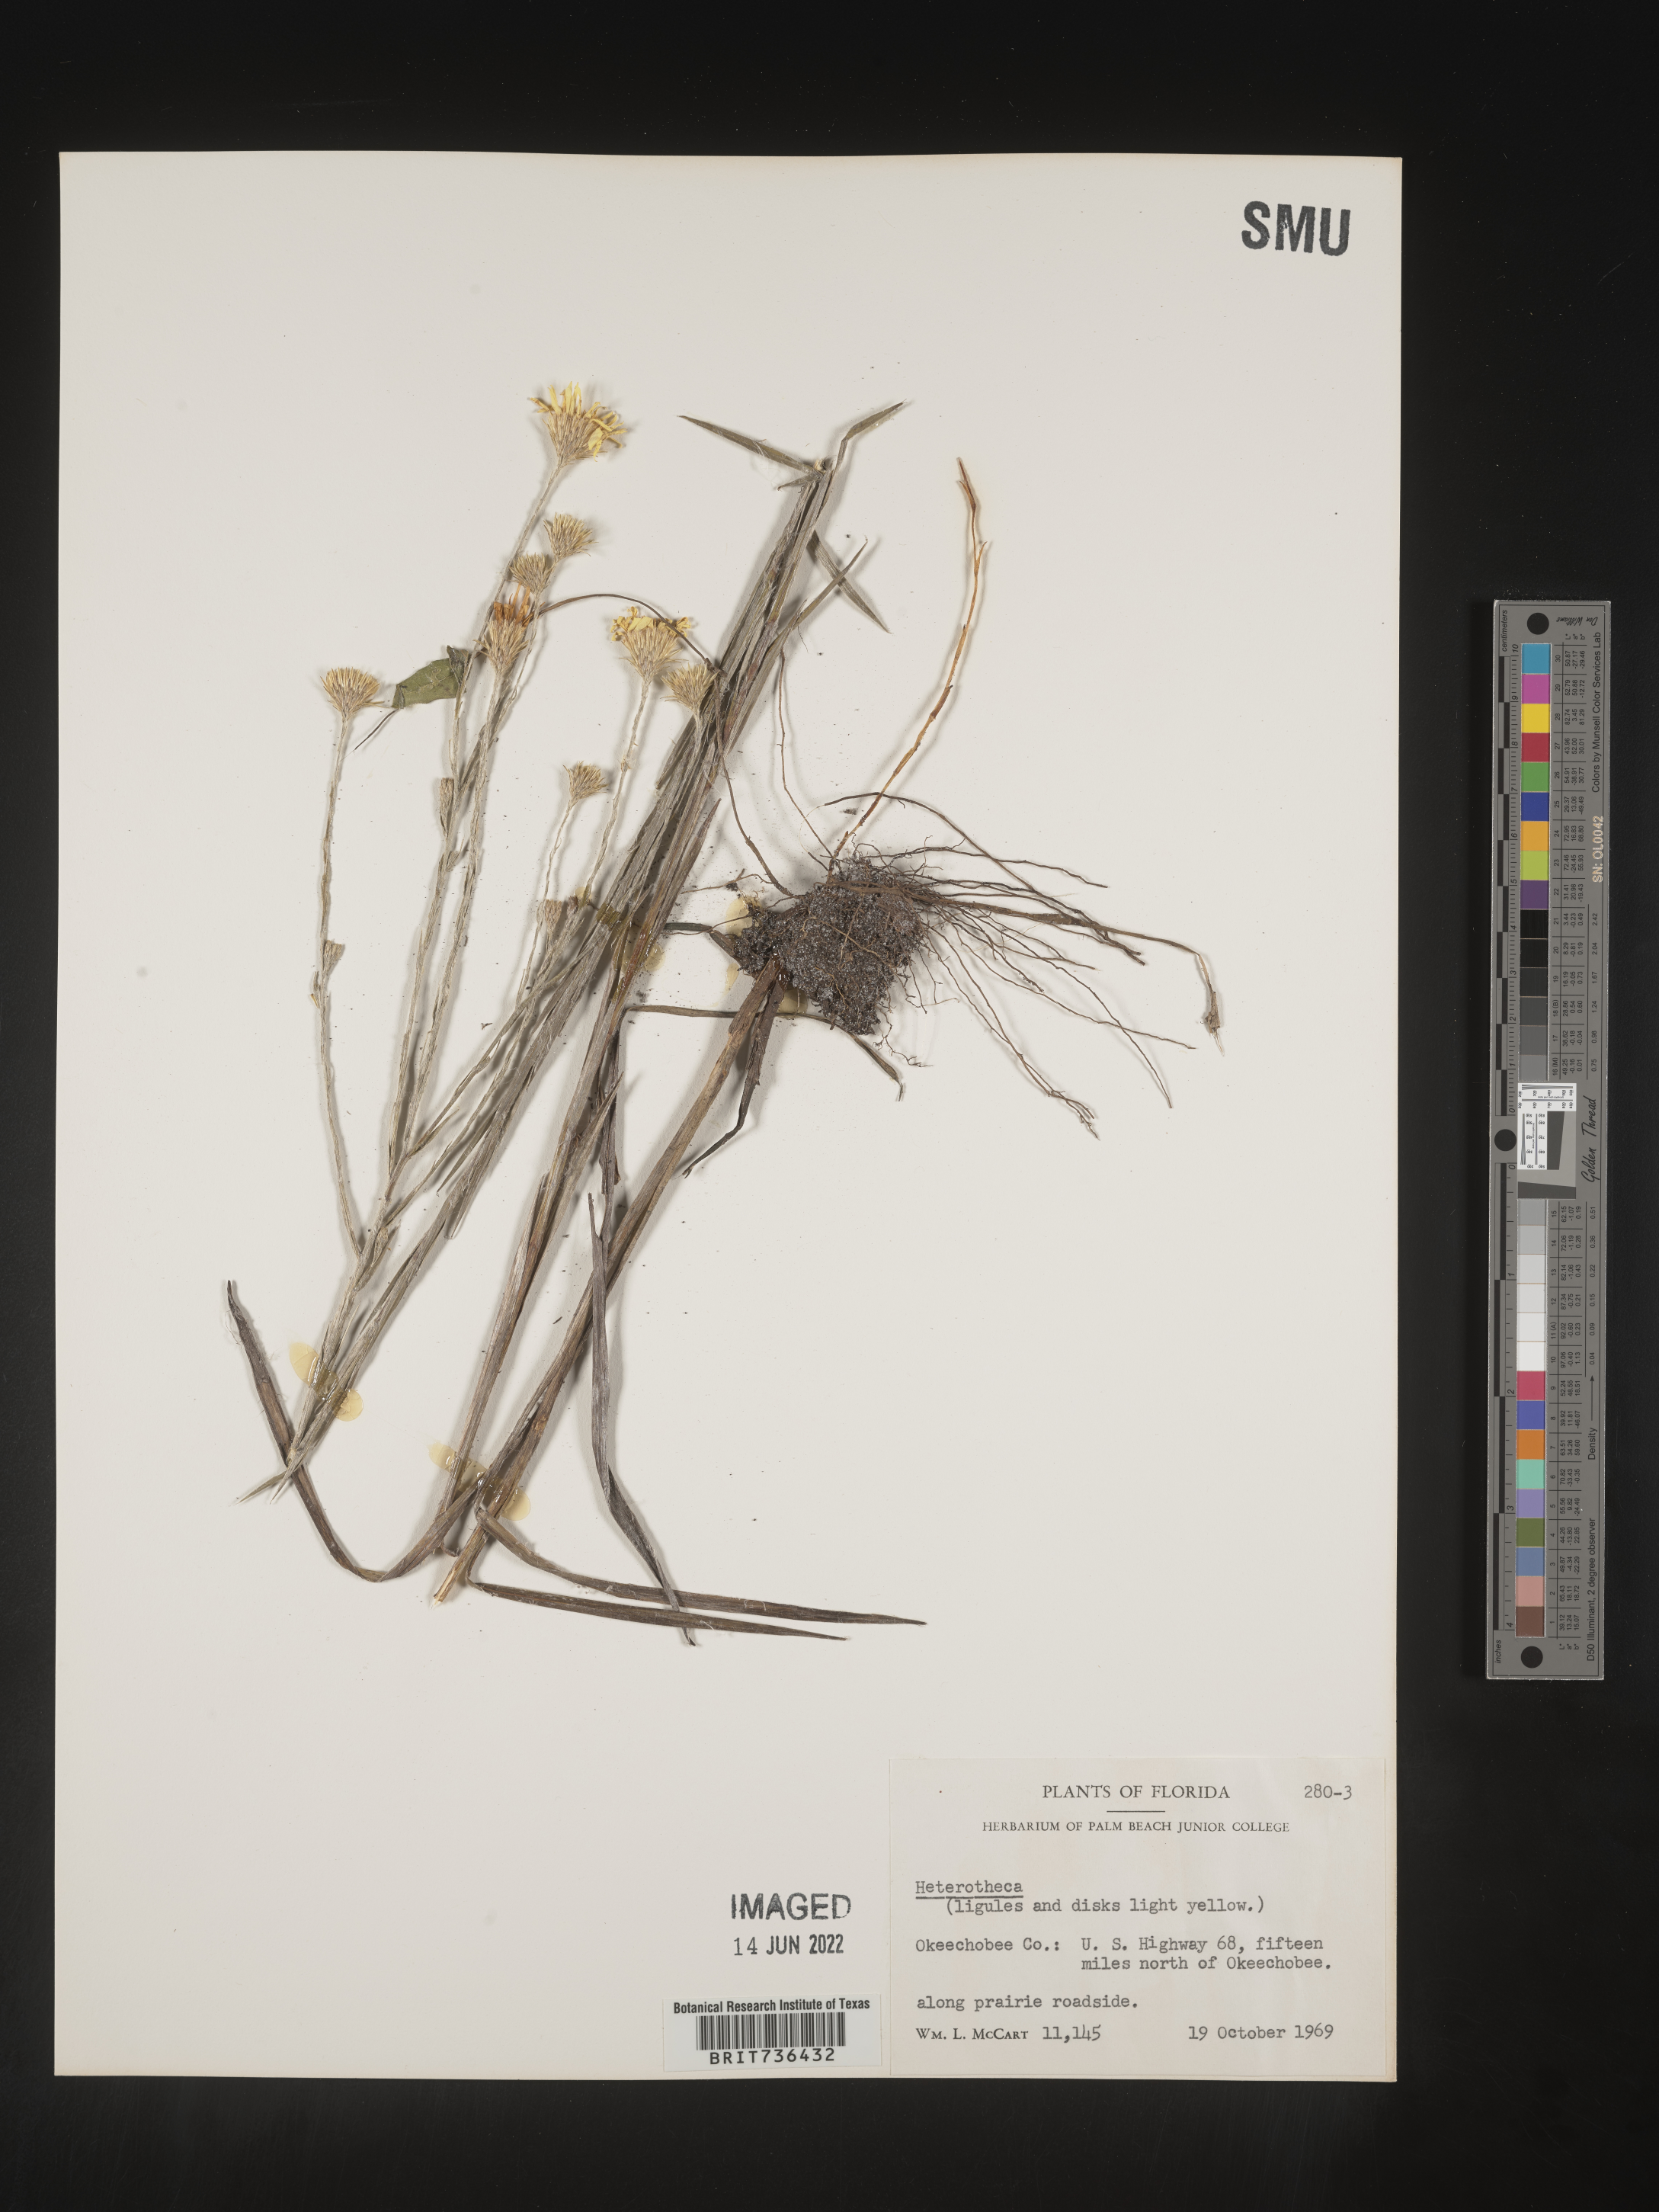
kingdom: Plantae
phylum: Tracheophyta
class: Magnoliopsida
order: Asterales
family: Asteraceae
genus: Pityopsis
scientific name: Pityopsis tracyi
